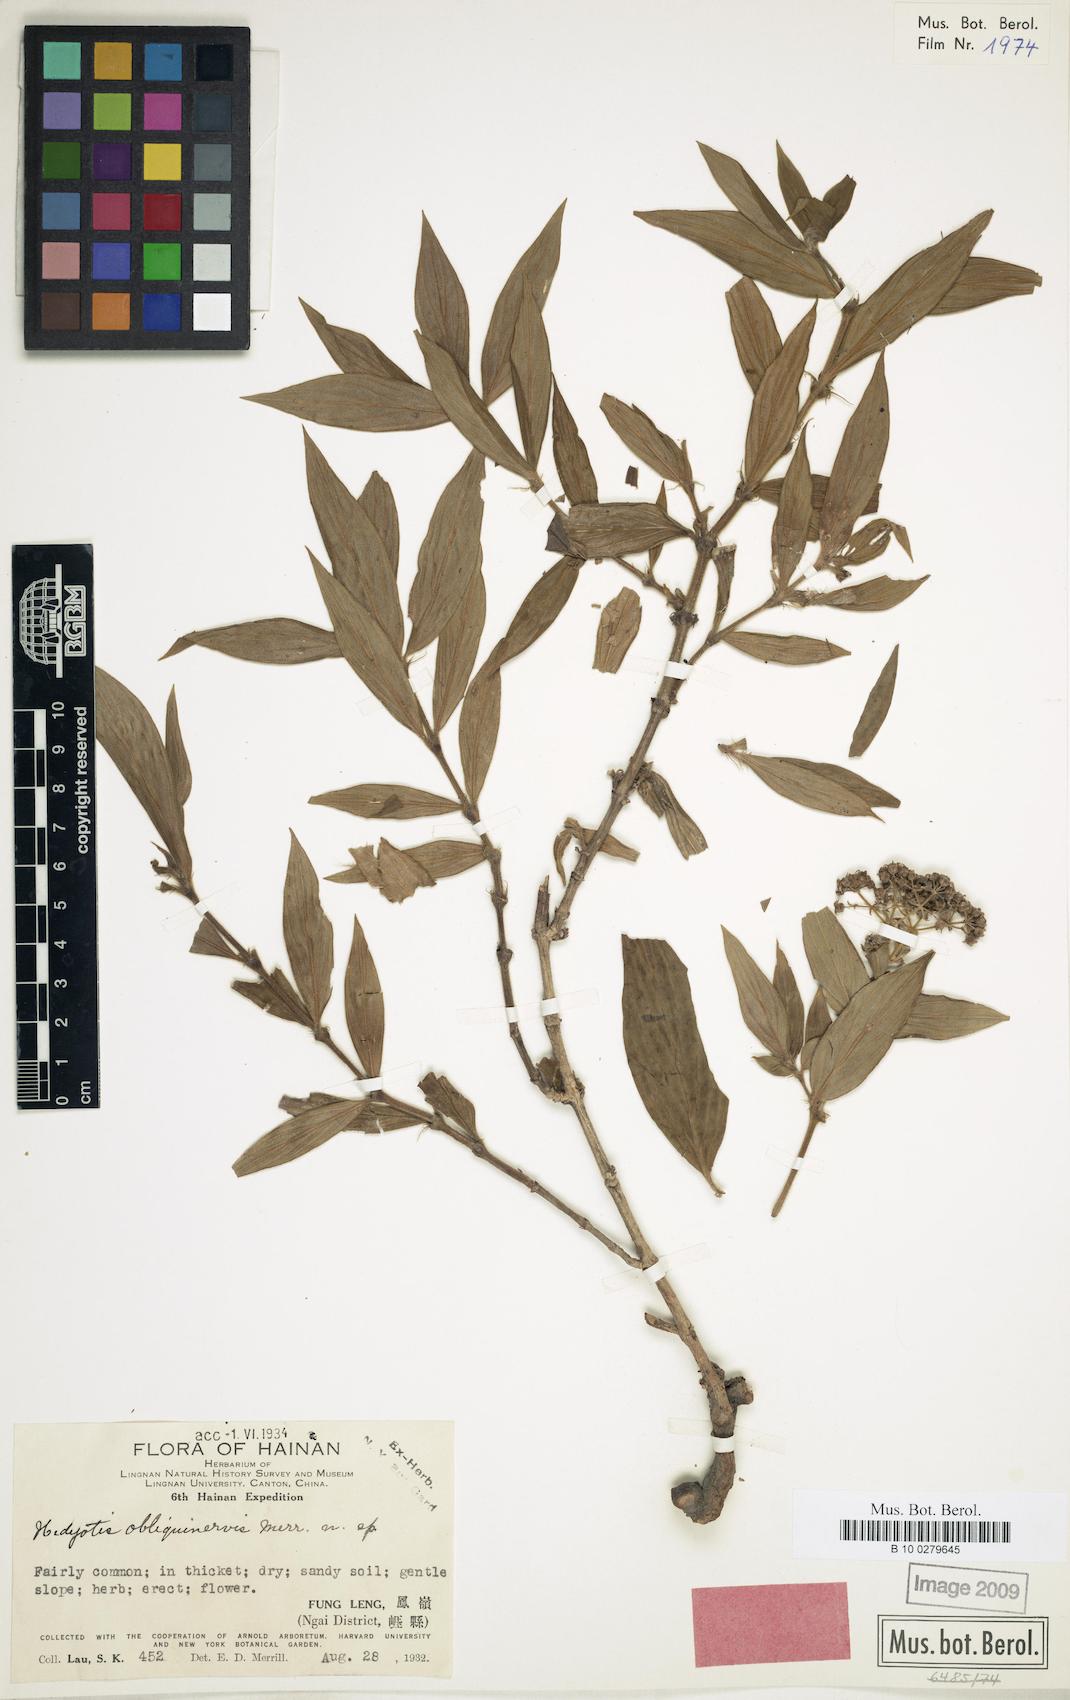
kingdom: Plantae
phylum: Tracheophyta
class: Magnoliopsida
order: Gentianales
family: Rubiaceae
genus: Dimetia
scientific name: Dimetia obliquinervis
